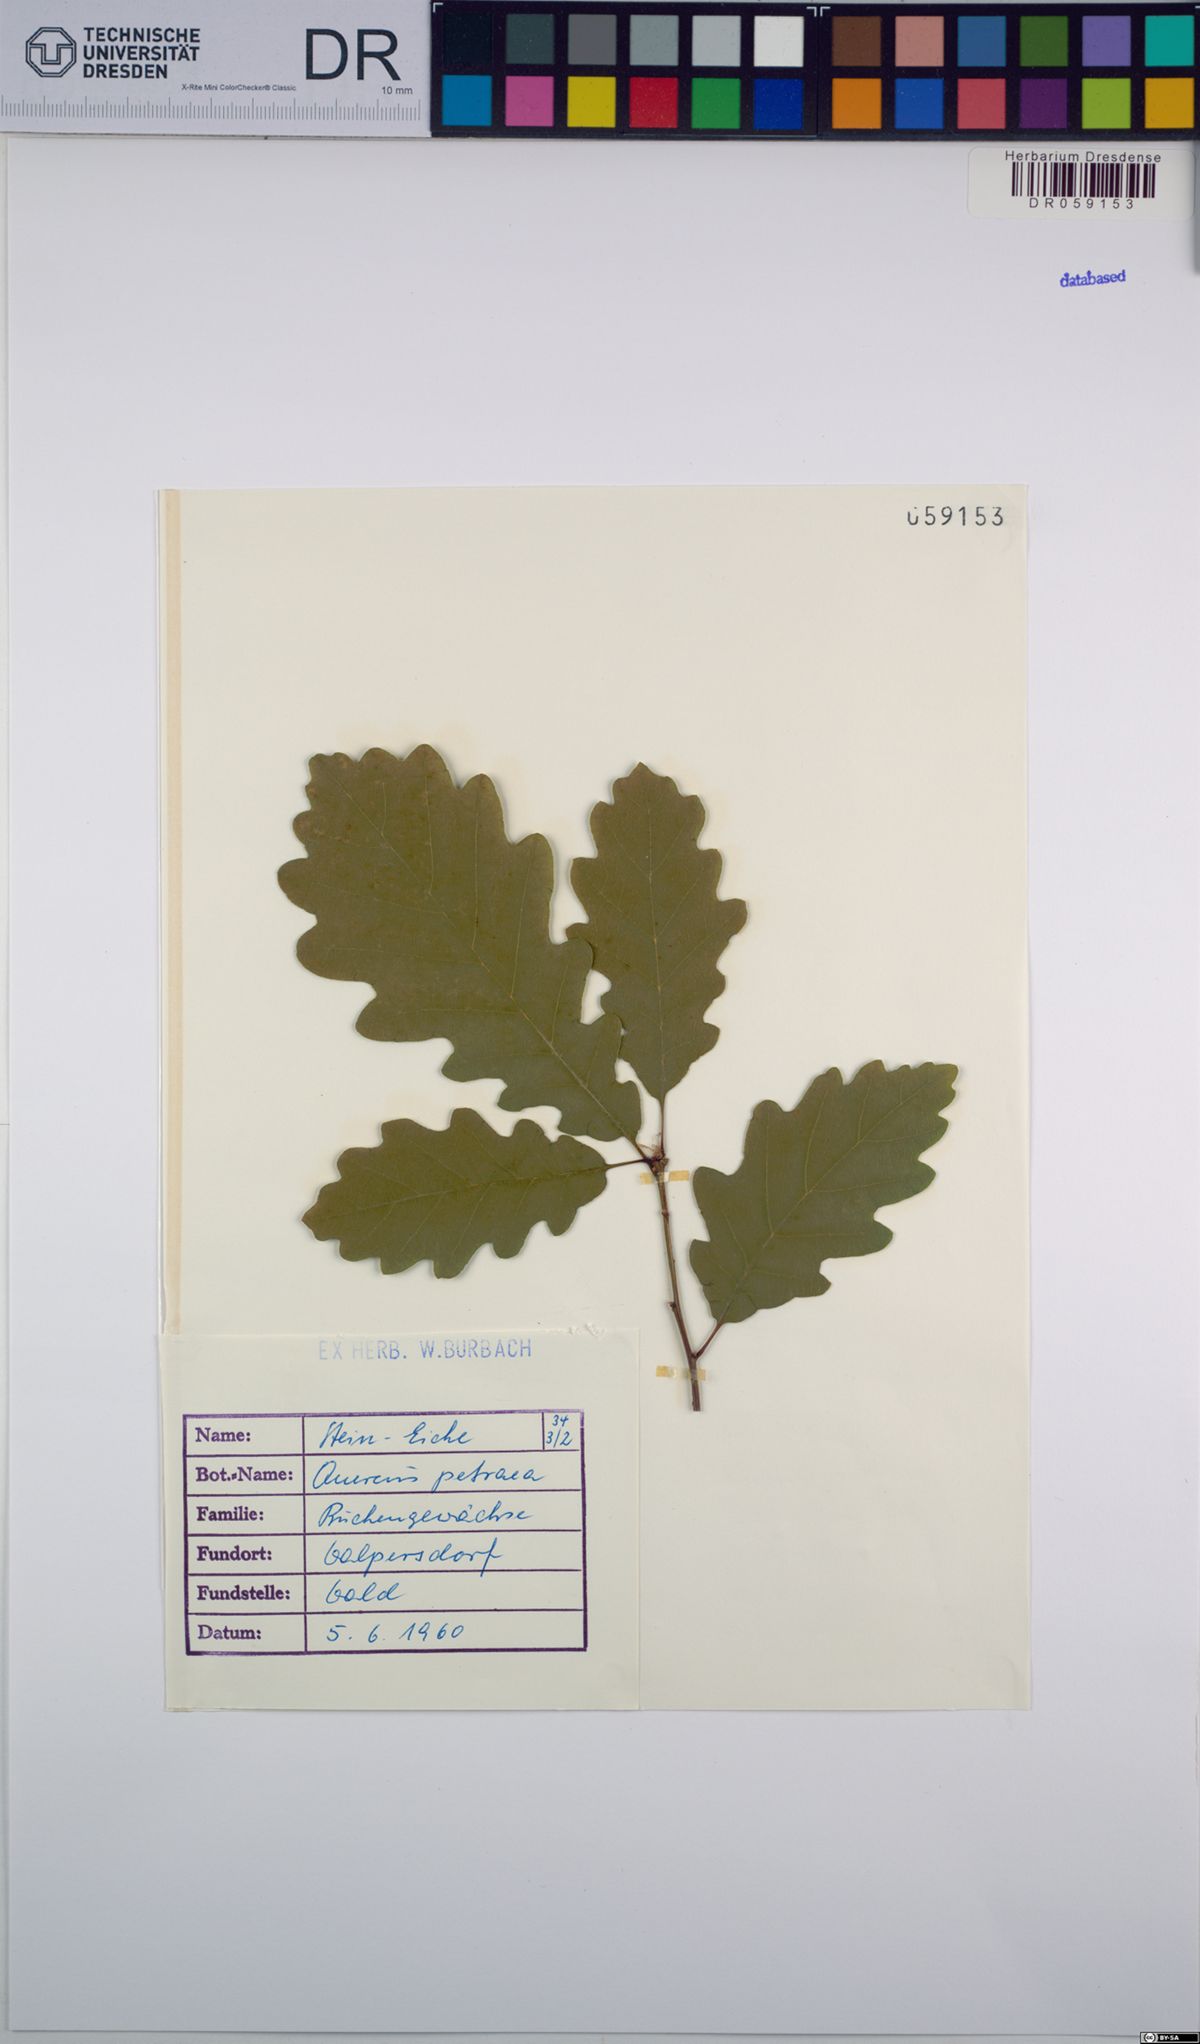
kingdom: Plantae
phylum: Tracheophyta
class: Magnoliopsida
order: Fagales
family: Fagaceae
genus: Quercus
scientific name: Quercus petraea
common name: Sessile oak
